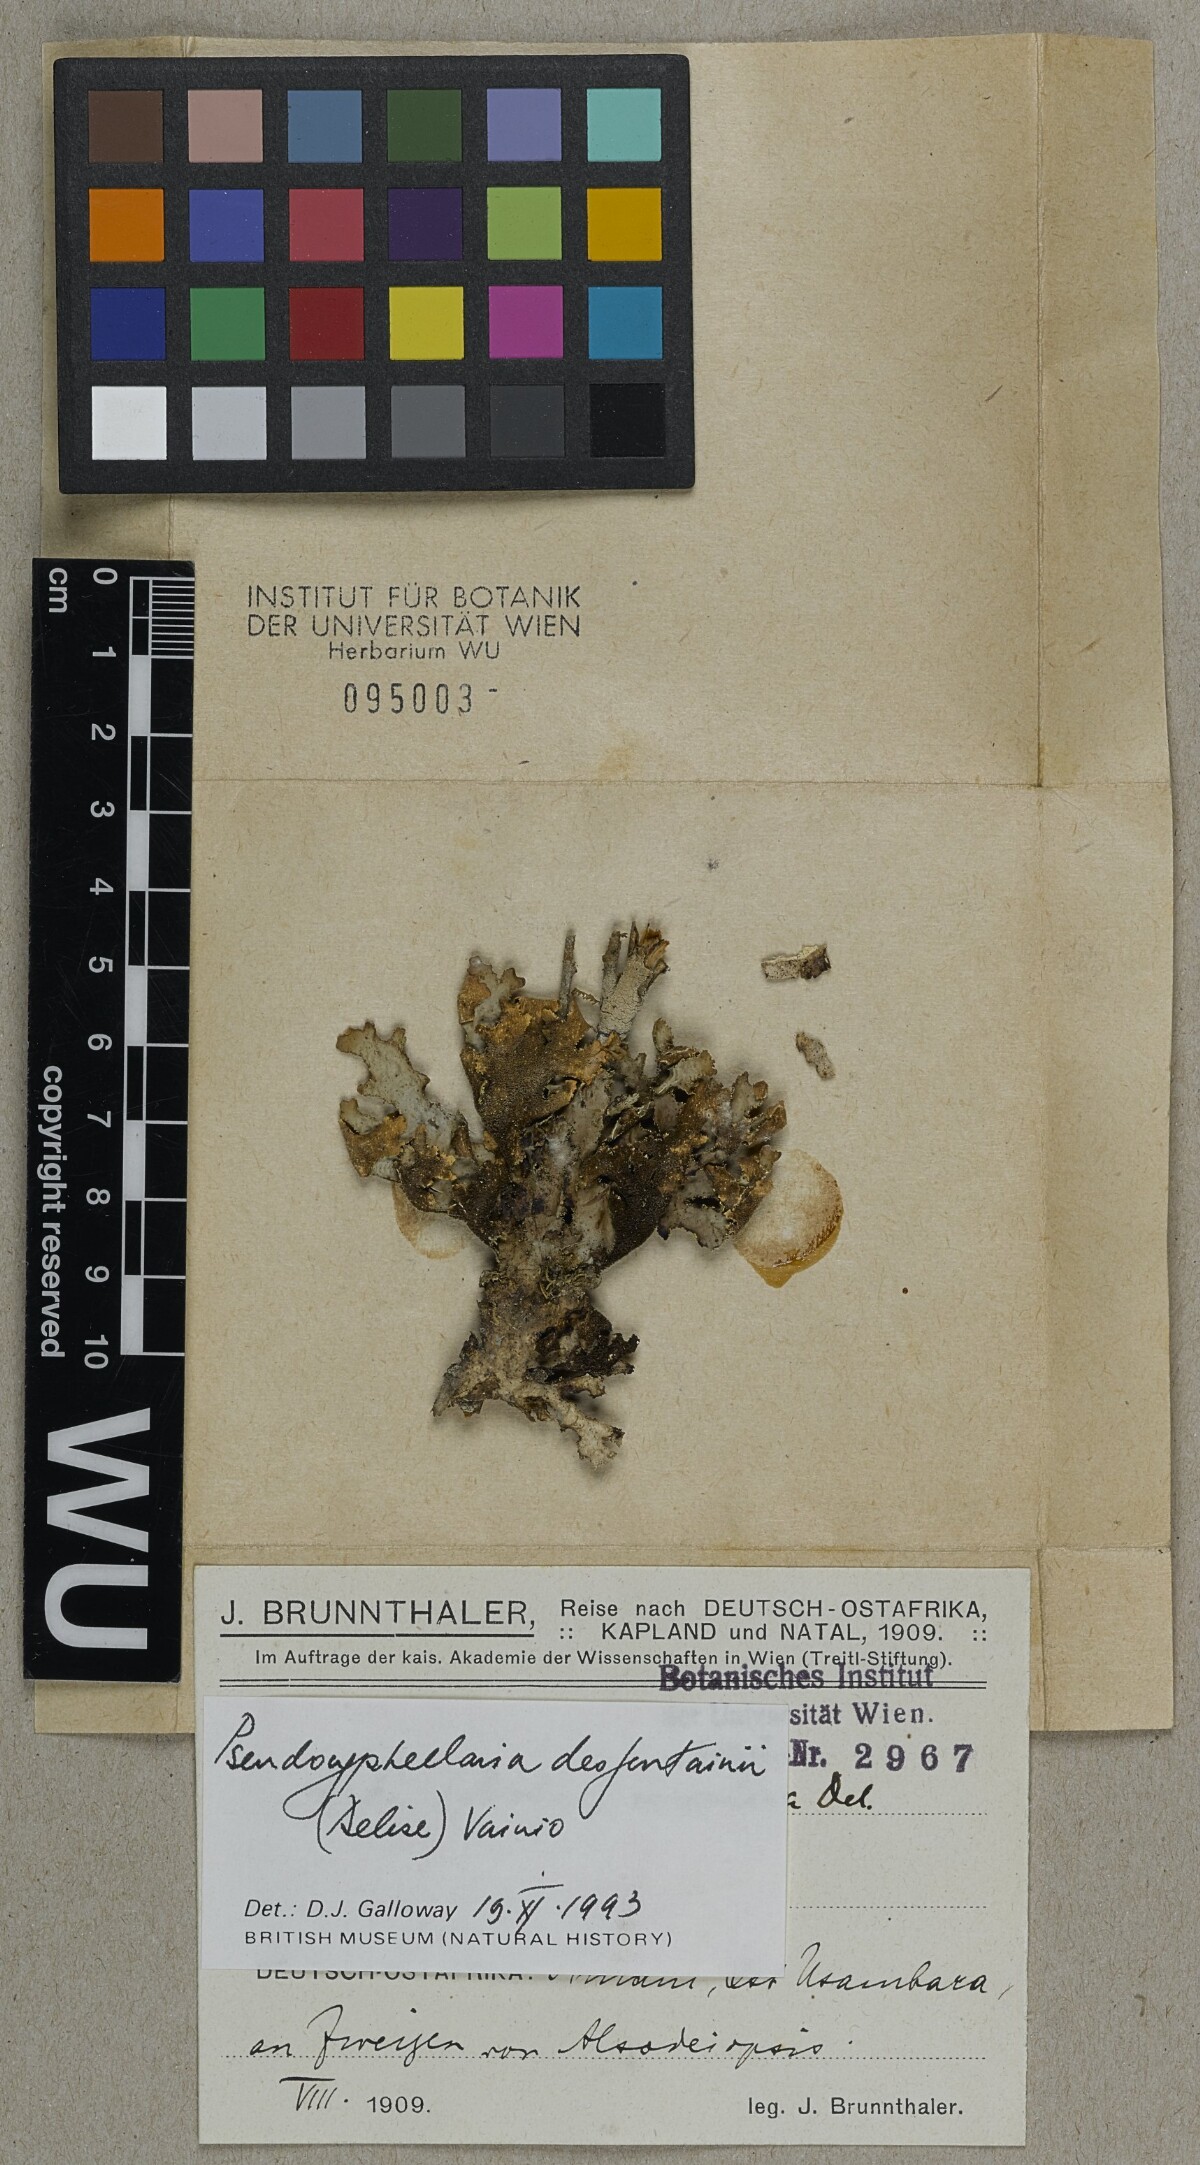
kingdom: Fungi
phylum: Ascomycota
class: Lecanoromycetes
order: Peltigerales
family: Lobariaceae
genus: Pseudocyphellaria
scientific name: Pseudocyphellaria desfontainii
